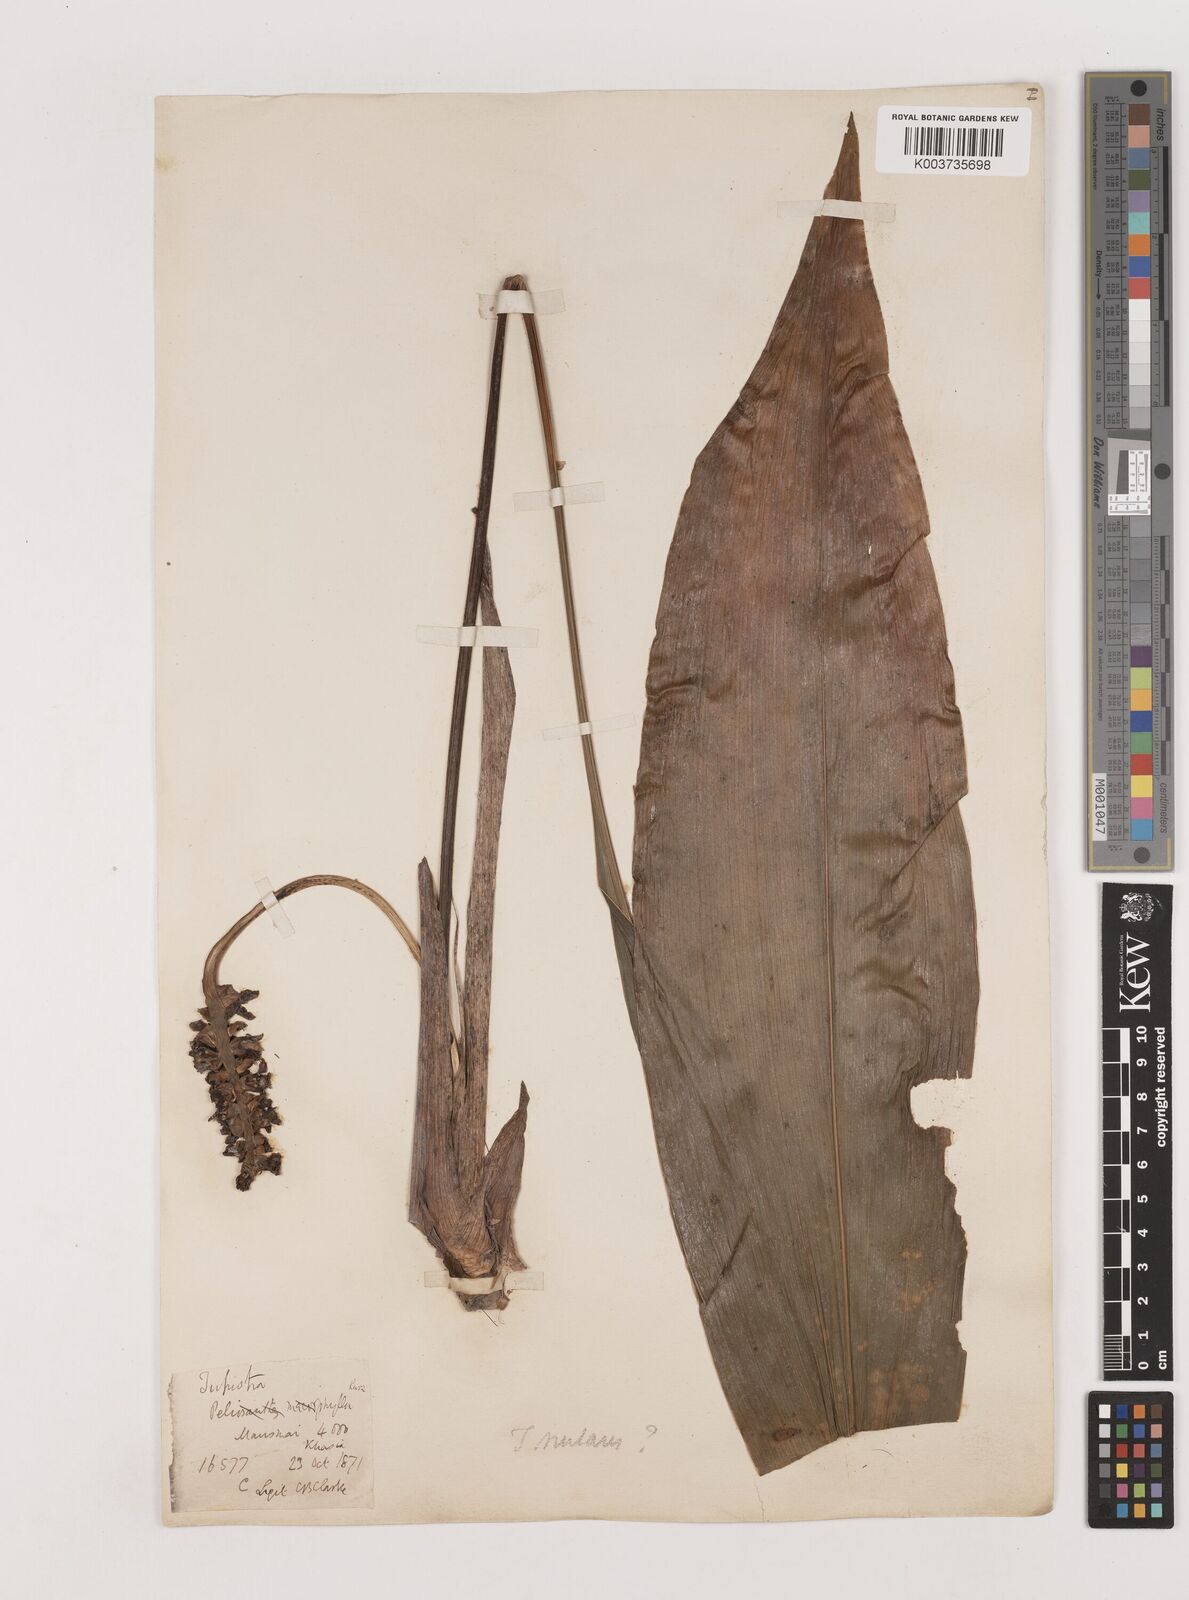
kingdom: Plantae
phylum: Tracheophyta
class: Liliopsida
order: Asparagales
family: Asparagaceae
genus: Tupistra
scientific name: Tupistra nutans
